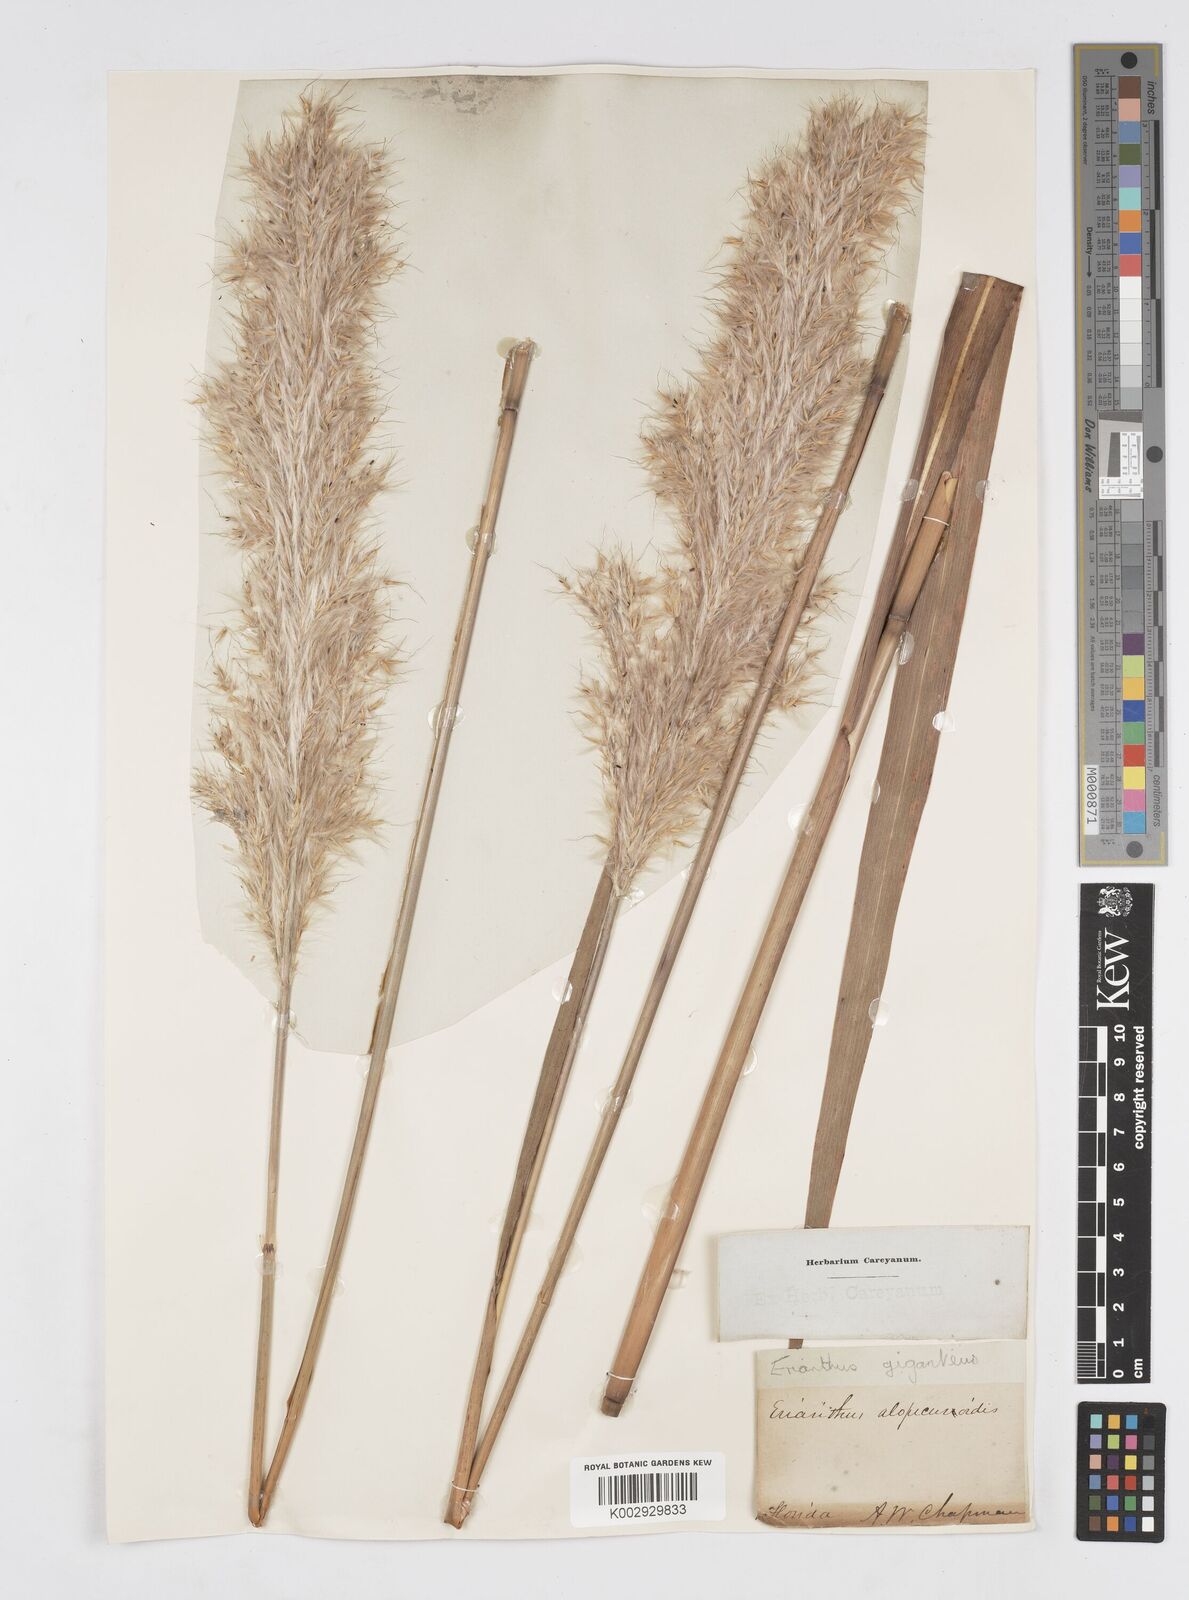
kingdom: Plantae
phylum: Tracheophyta
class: Liliopsida
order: Poales
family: Poaceae
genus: Erianthus
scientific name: Erianthus alopecuroides
